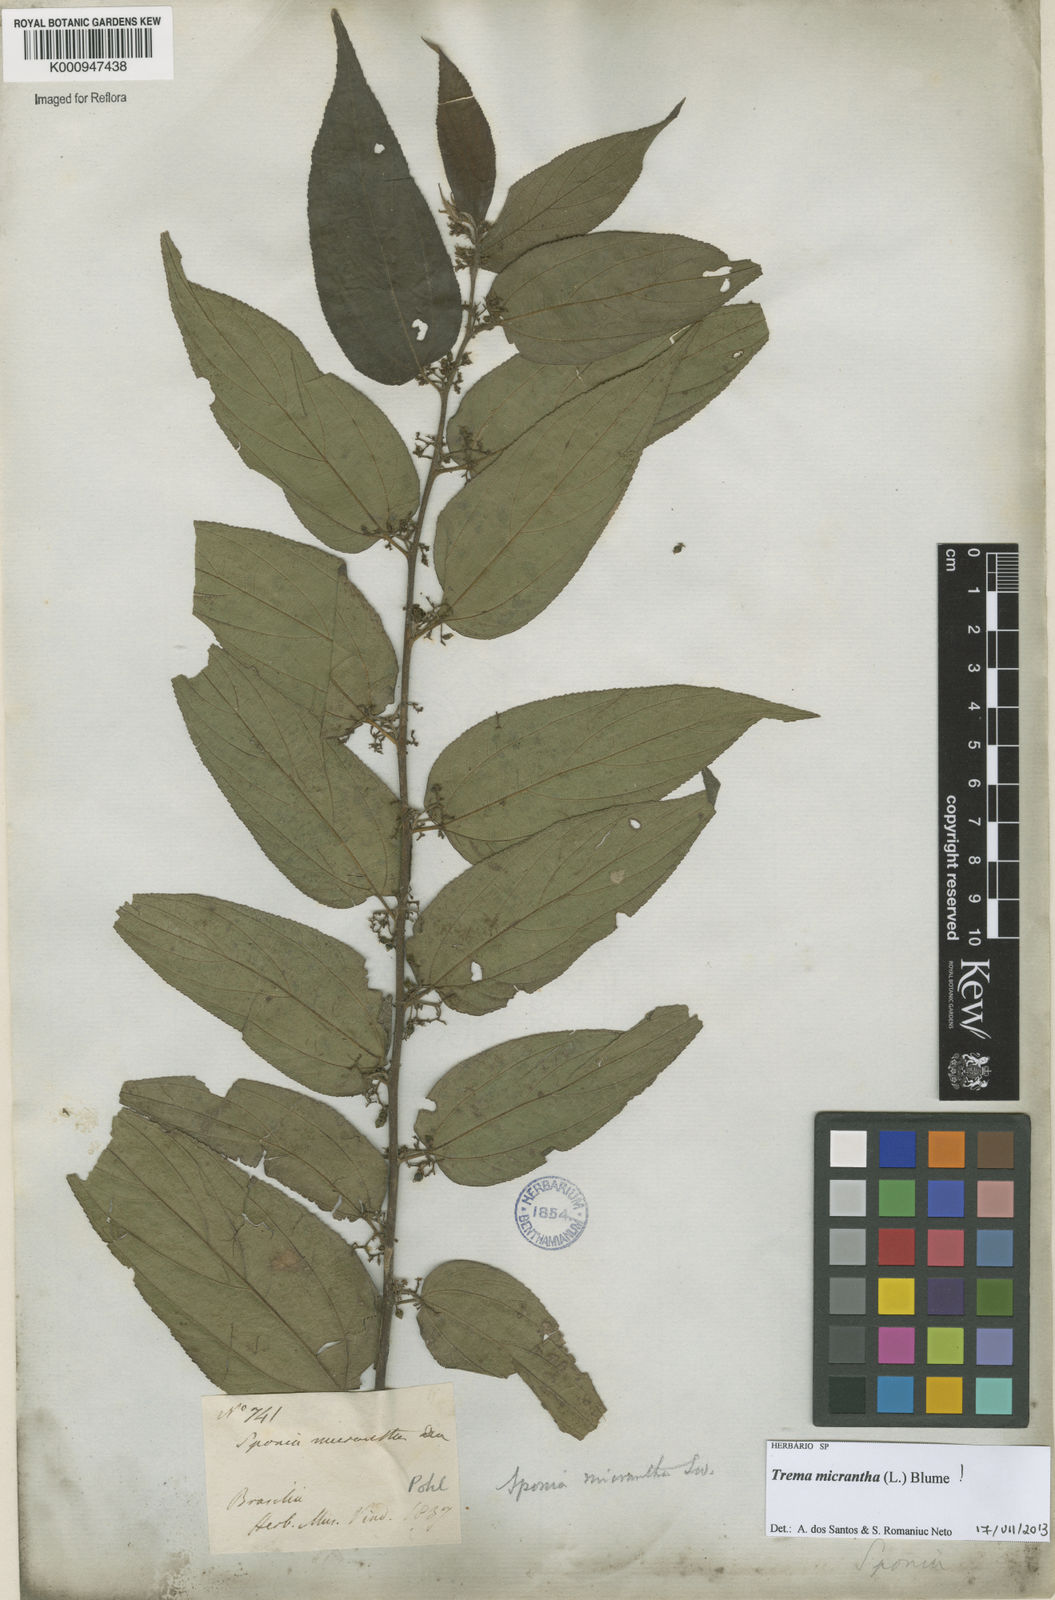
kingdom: Plantae
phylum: Tracheophyta
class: Magnoliopsida
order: Rosales
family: Cannabaceae
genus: Trema
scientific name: Trema micranthum
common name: Jamaican nettletree
